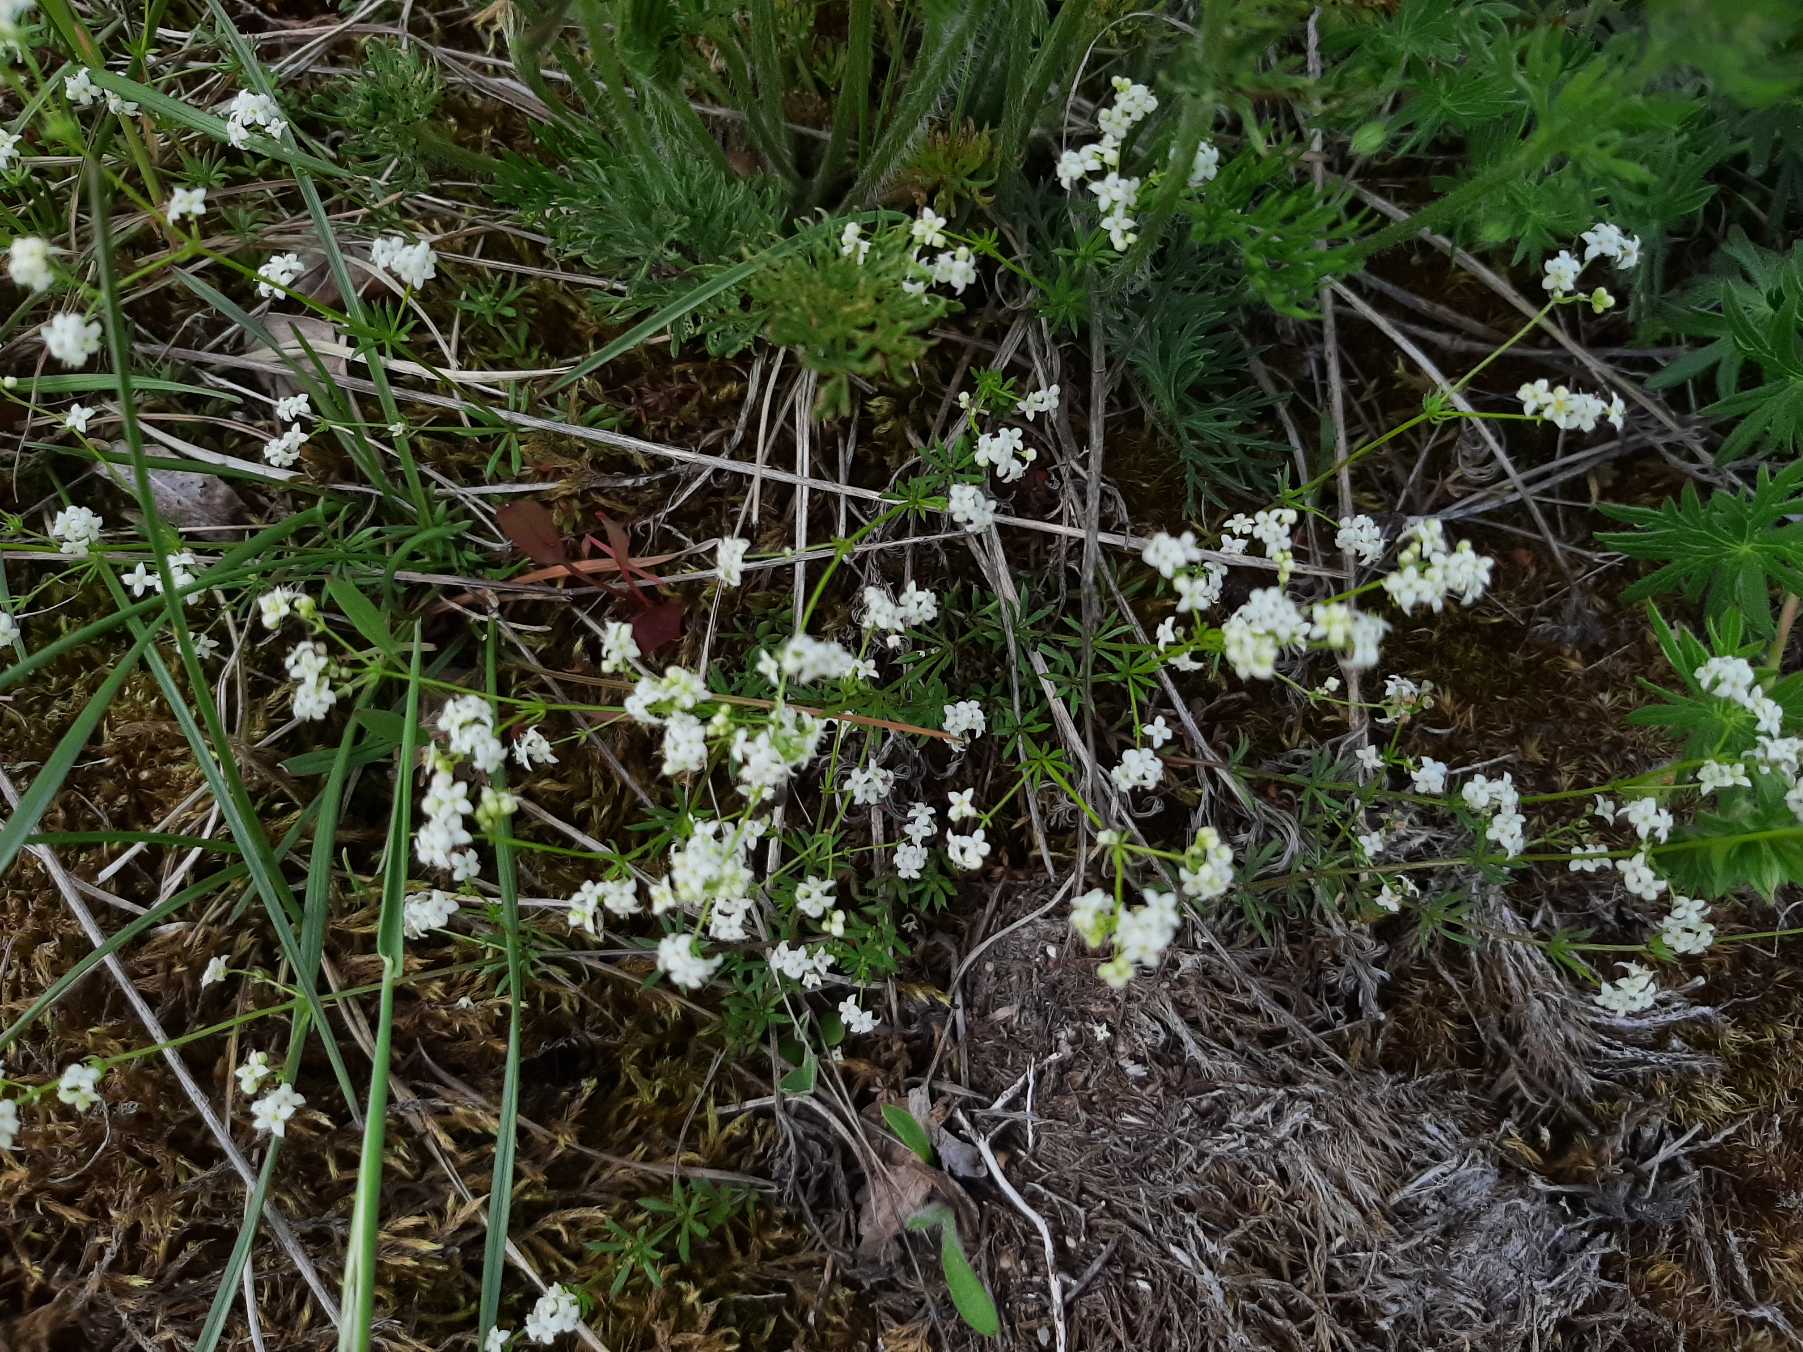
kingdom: Plantae
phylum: Tracheophyta
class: Magnoliopsida
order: Gentianales
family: Rubiaceae
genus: Galium
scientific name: Galium sterneri
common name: Liden snerre
